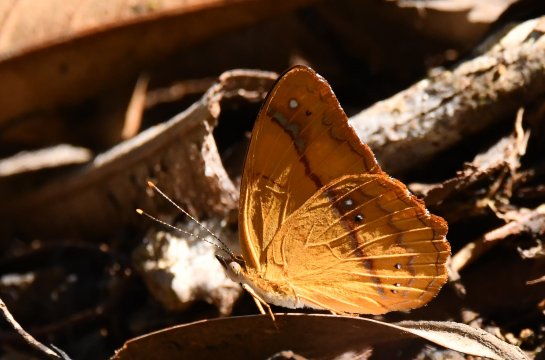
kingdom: Animalia
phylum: Arthropoda
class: Insecta
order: Lepidoptera
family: Nymphalidae
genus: Nica
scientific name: Nica flavilla
